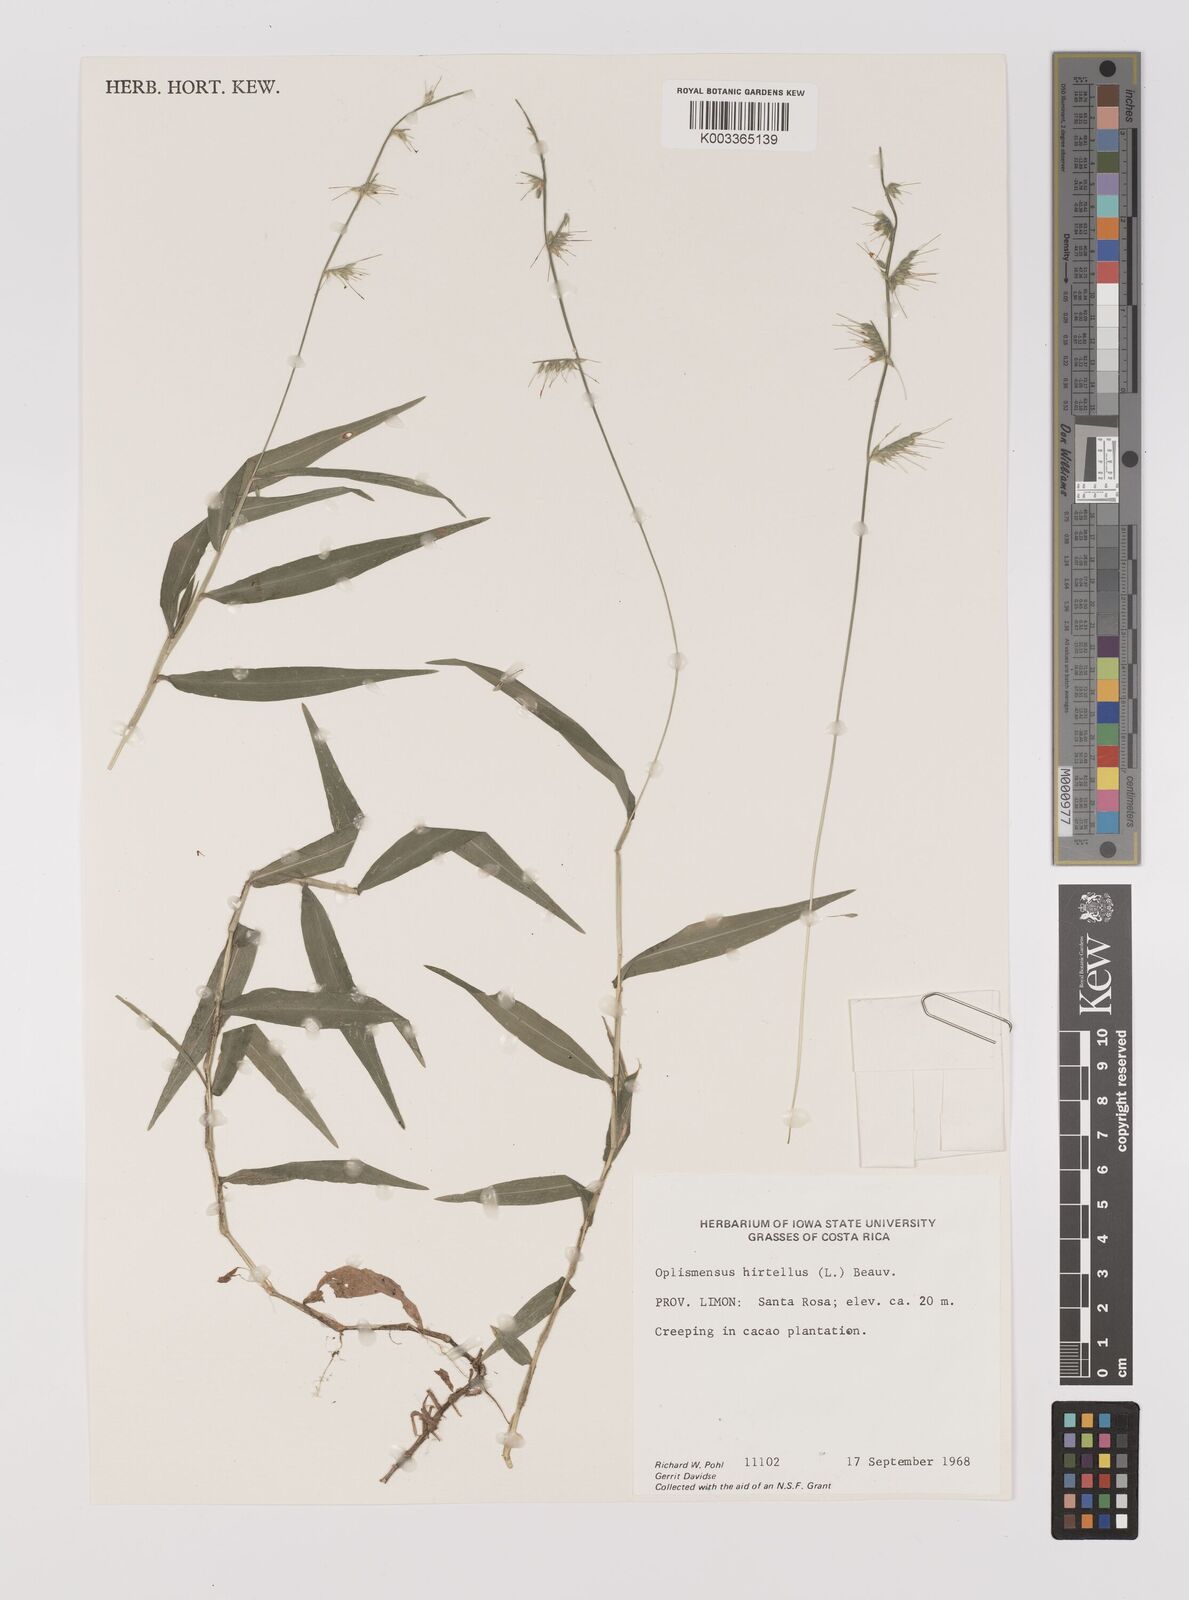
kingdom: Plantae
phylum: Tracheophyta
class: Liliopsida
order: Poales
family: Poaceae
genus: Oplismenus
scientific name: Oplismenus hirtellus
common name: Basketgrass
